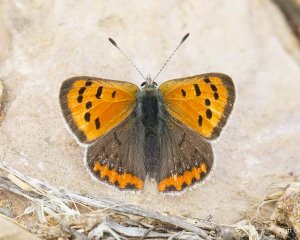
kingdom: Animalia
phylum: Arthropoda
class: Insecta
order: Lepidoptera
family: Lycaenidae
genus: Lycaena
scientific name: Lycaena phlaeas
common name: American Copper
